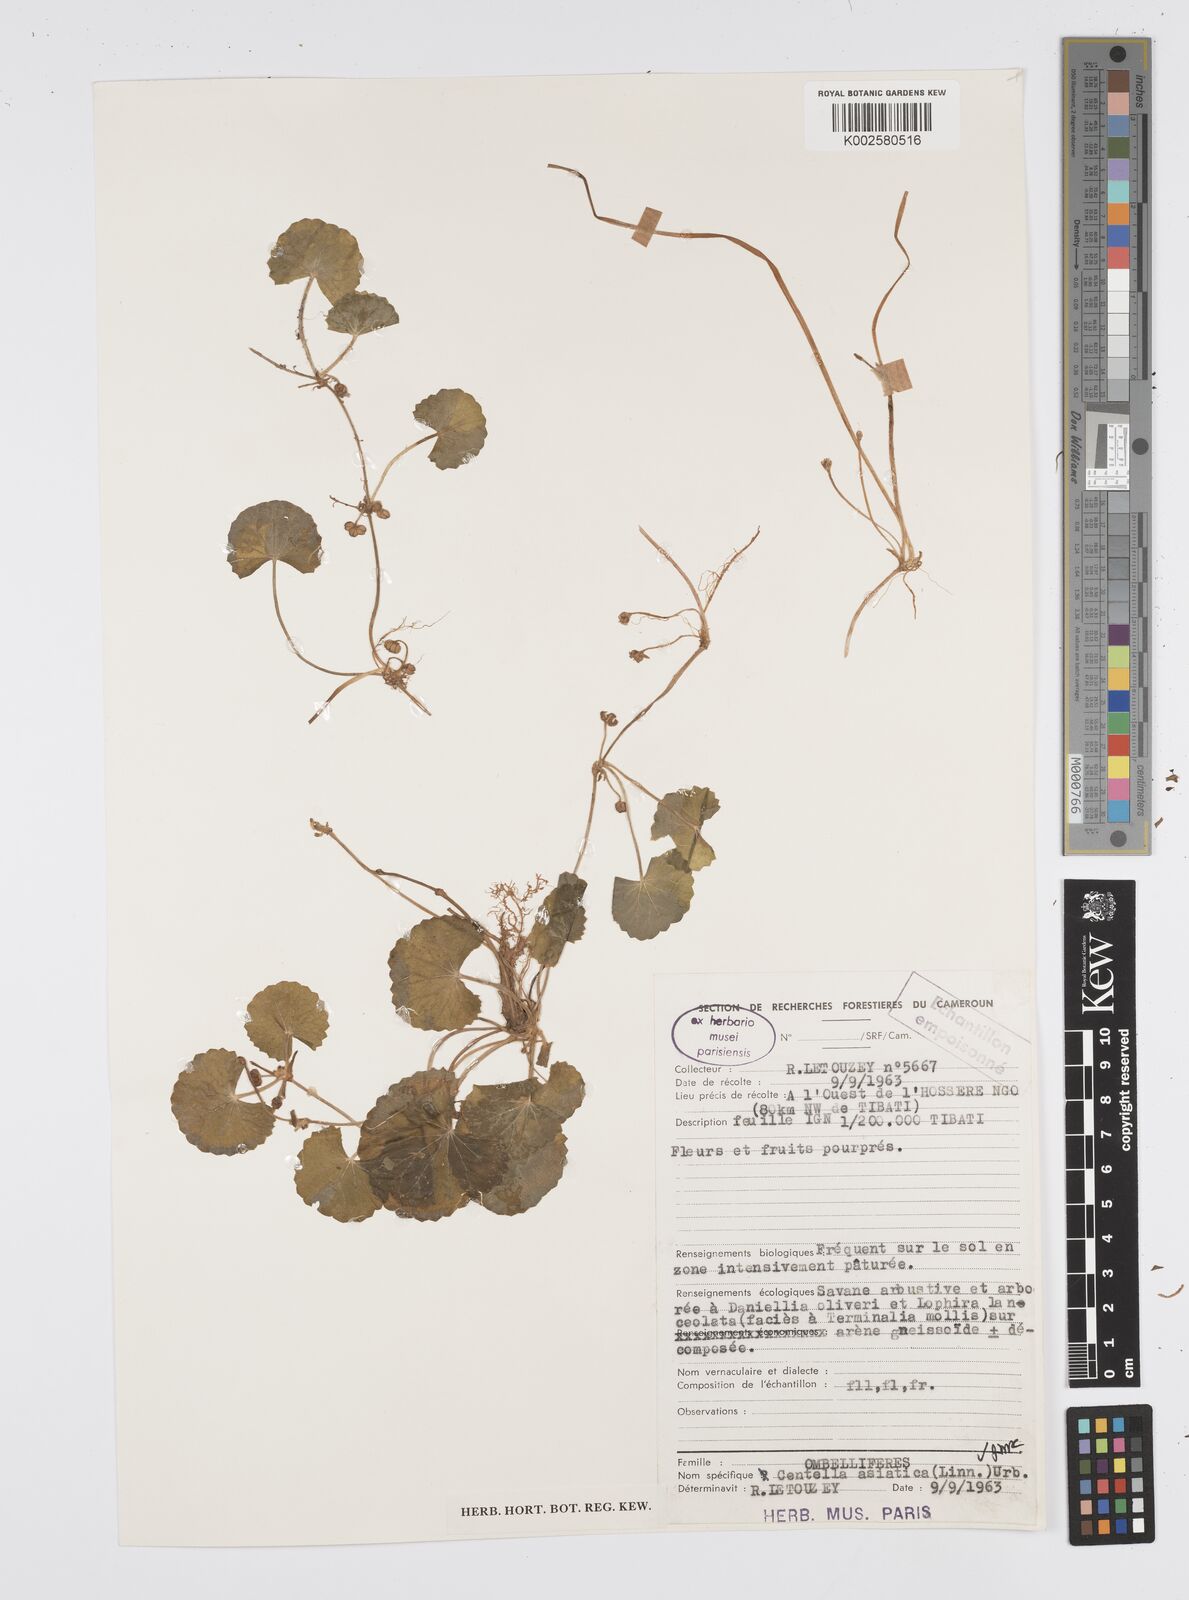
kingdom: Plantae
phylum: Tracheophyta
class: Magnoliopsida
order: Apiales
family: Apiaceae
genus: Centella
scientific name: Centella asiatica
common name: Spadeleaf
